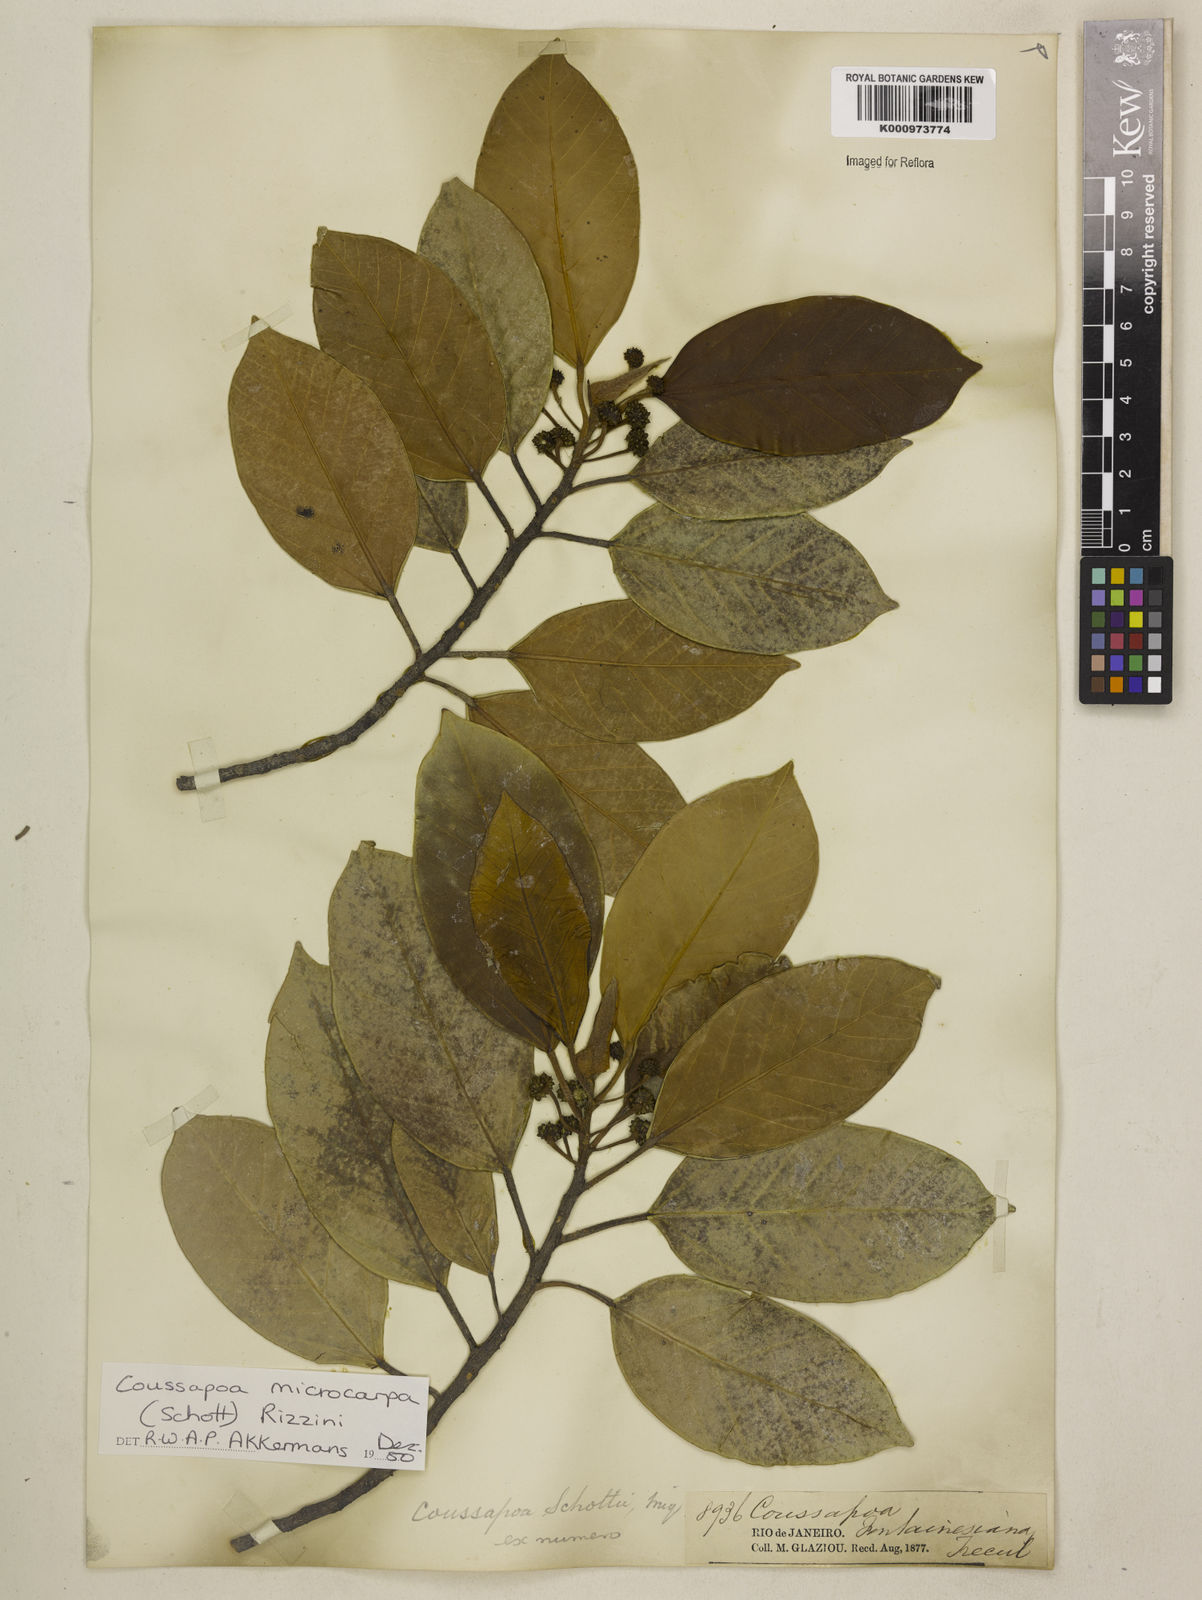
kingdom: Plantae
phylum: Tracheophyta
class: Magnoliopsida
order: Rosales
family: Urticaceae
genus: Coussapoa
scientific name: Coussapoa microcarpa
